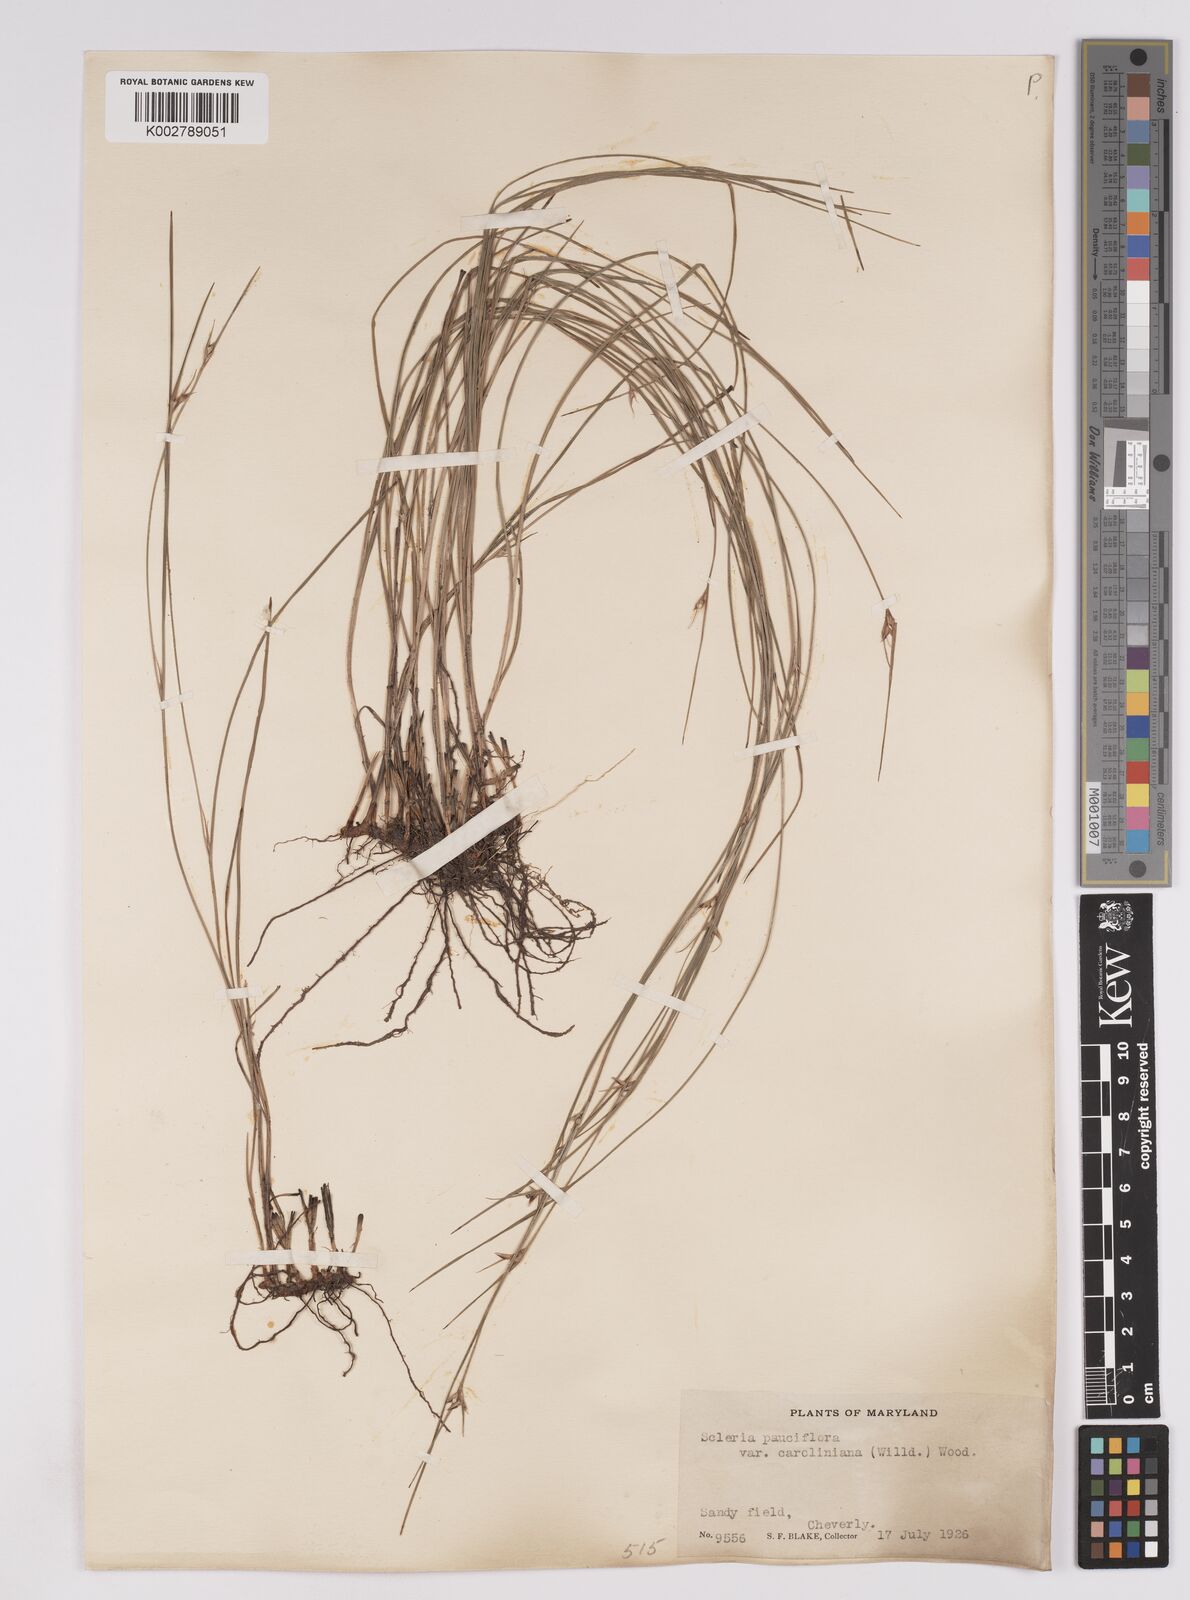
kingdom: Plantae
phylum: Tracheophyta
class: Liliopsida
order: Poales
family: Cyperaceae
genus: Scleria
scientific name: Scleria pauciflora
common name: Few-flowered nutrush
